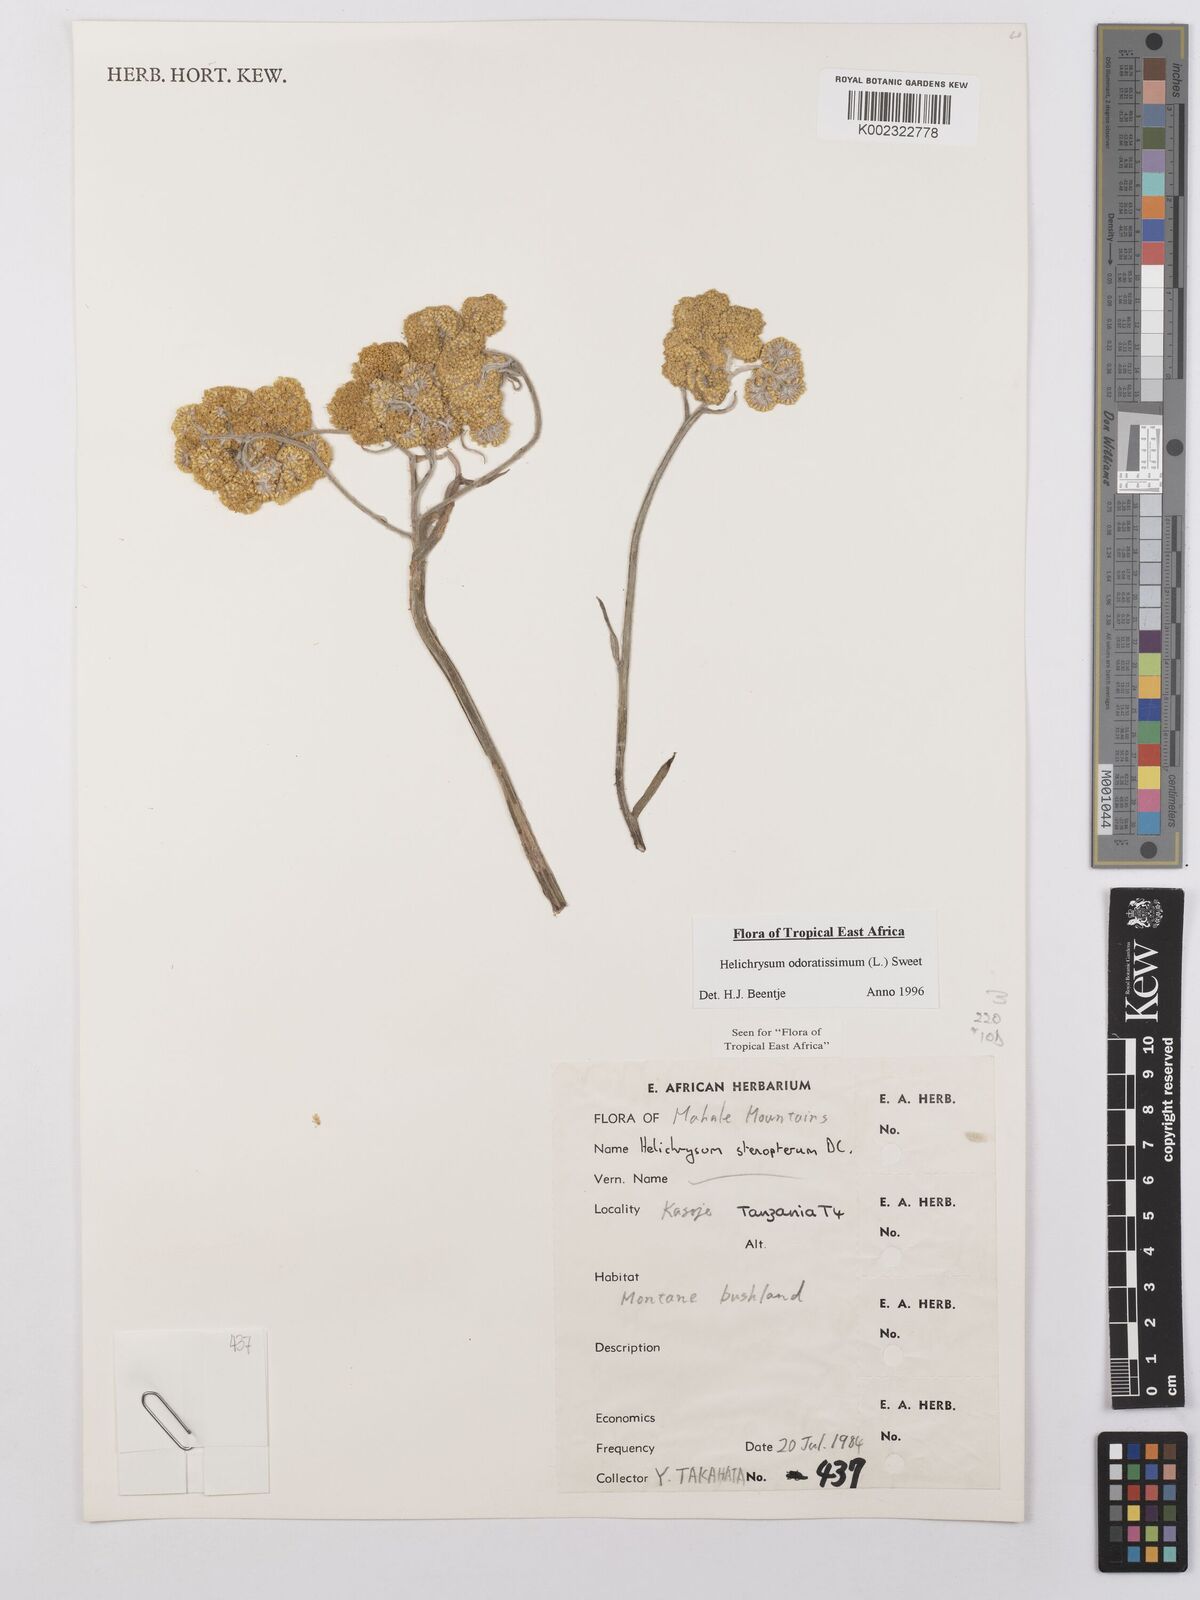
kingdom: Plantae
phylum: Tracheophyta
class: Magnoliopsida
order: Asterales
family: Asteraceae
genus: Helichrysum
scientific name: Helichrysum odoratissimum
